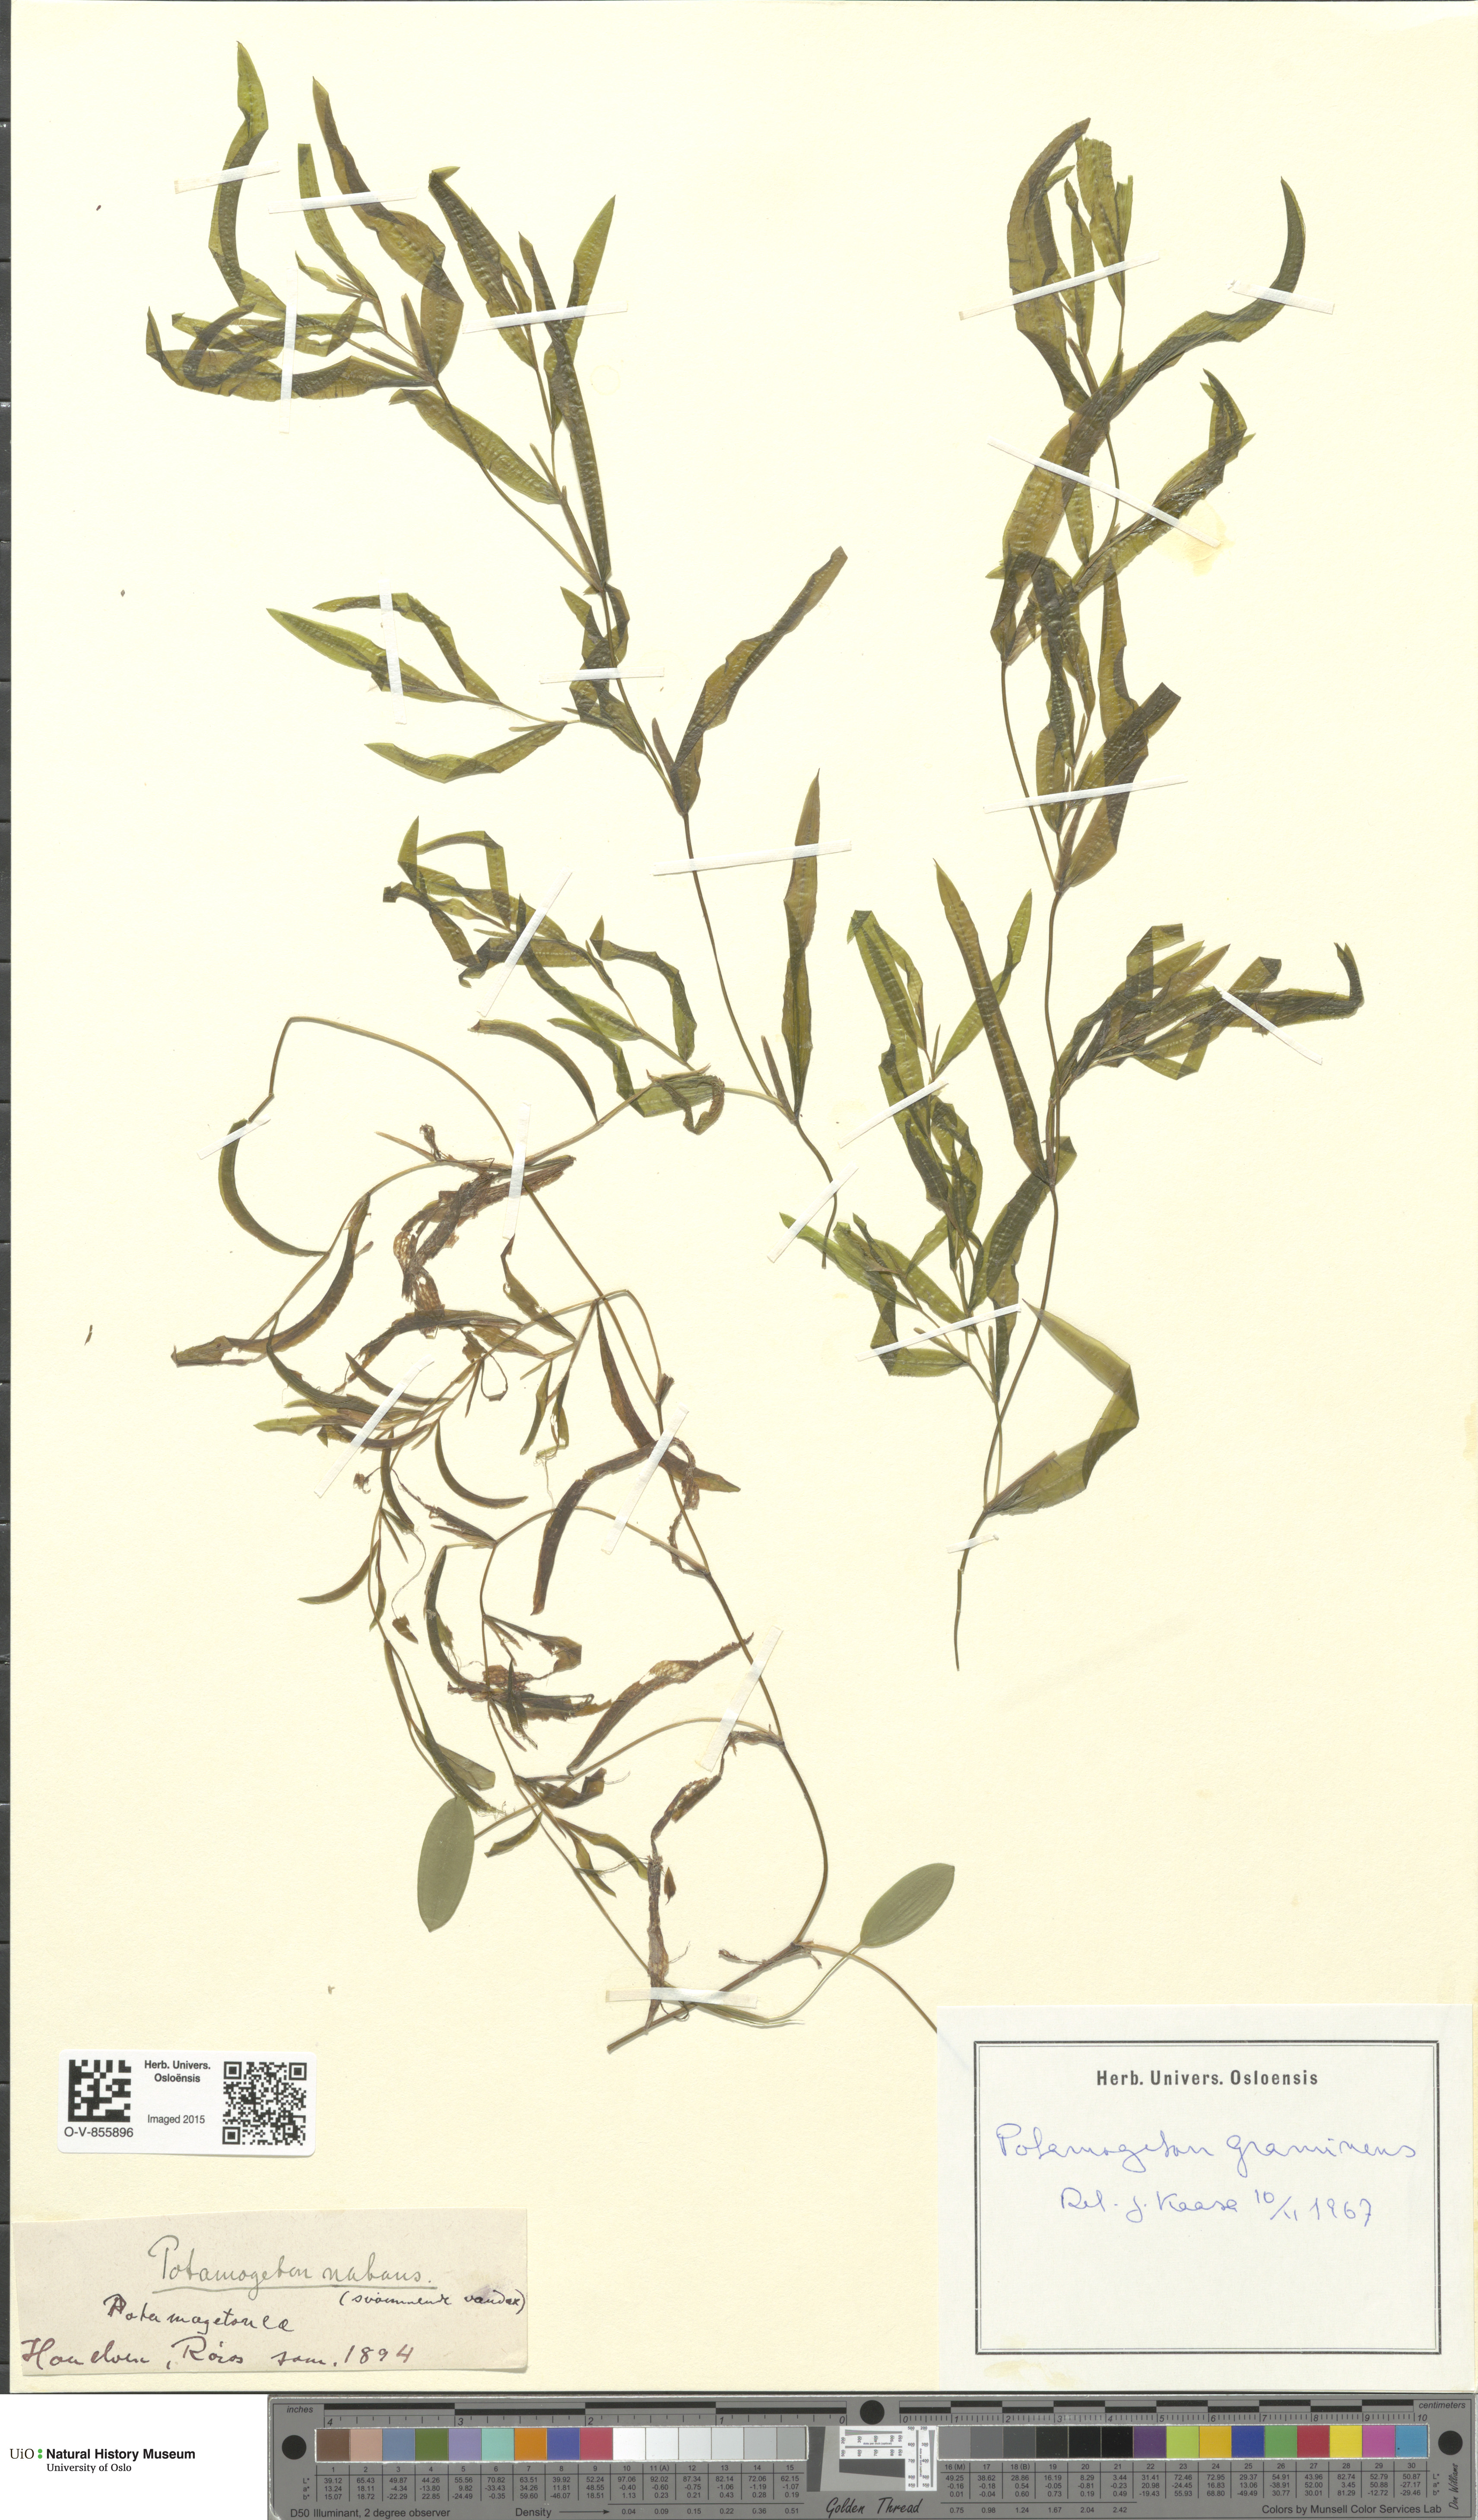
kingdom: Plantae
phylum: Tracheophyta
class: Liliopsida
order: Alismatales
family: Potamogetonaceae
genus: Potamogeton
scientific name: Potamogeton gramineus
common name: Various-leaved pondweed
